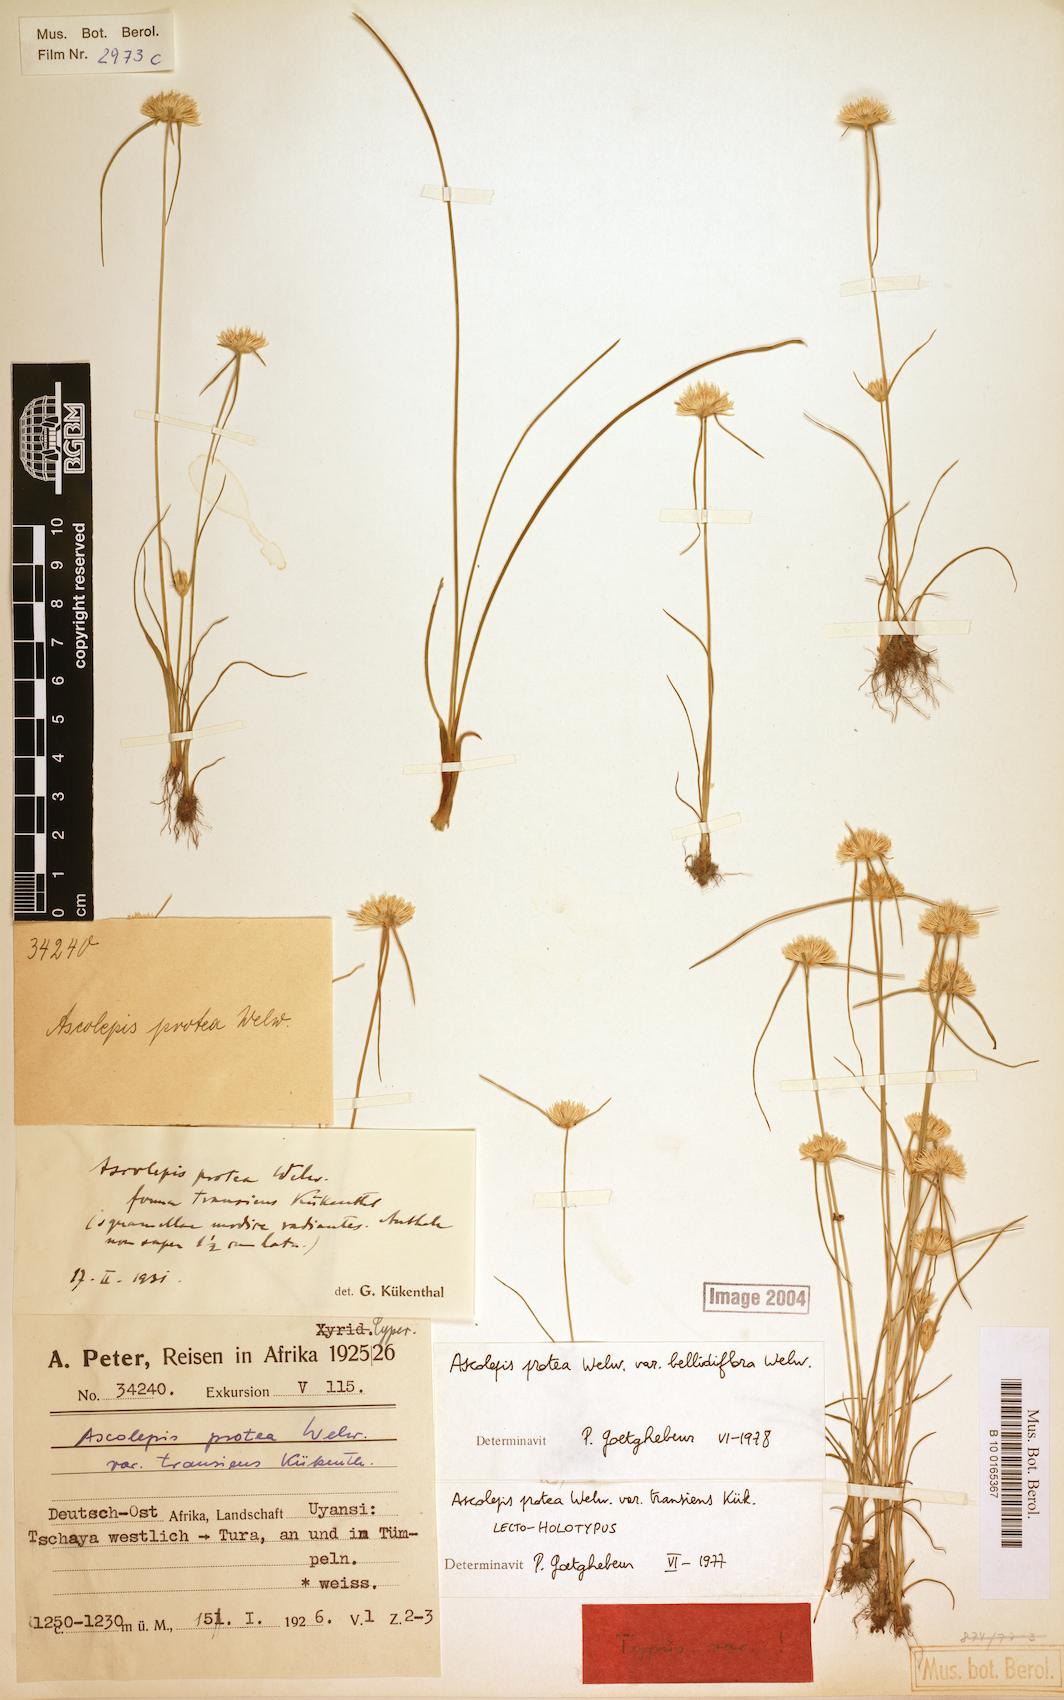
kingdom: Plantae
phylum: Tracheophyta
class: Liliopsida
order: Poales
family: Cyperaceae
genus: Cyperus
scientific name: Cyperus proteus
